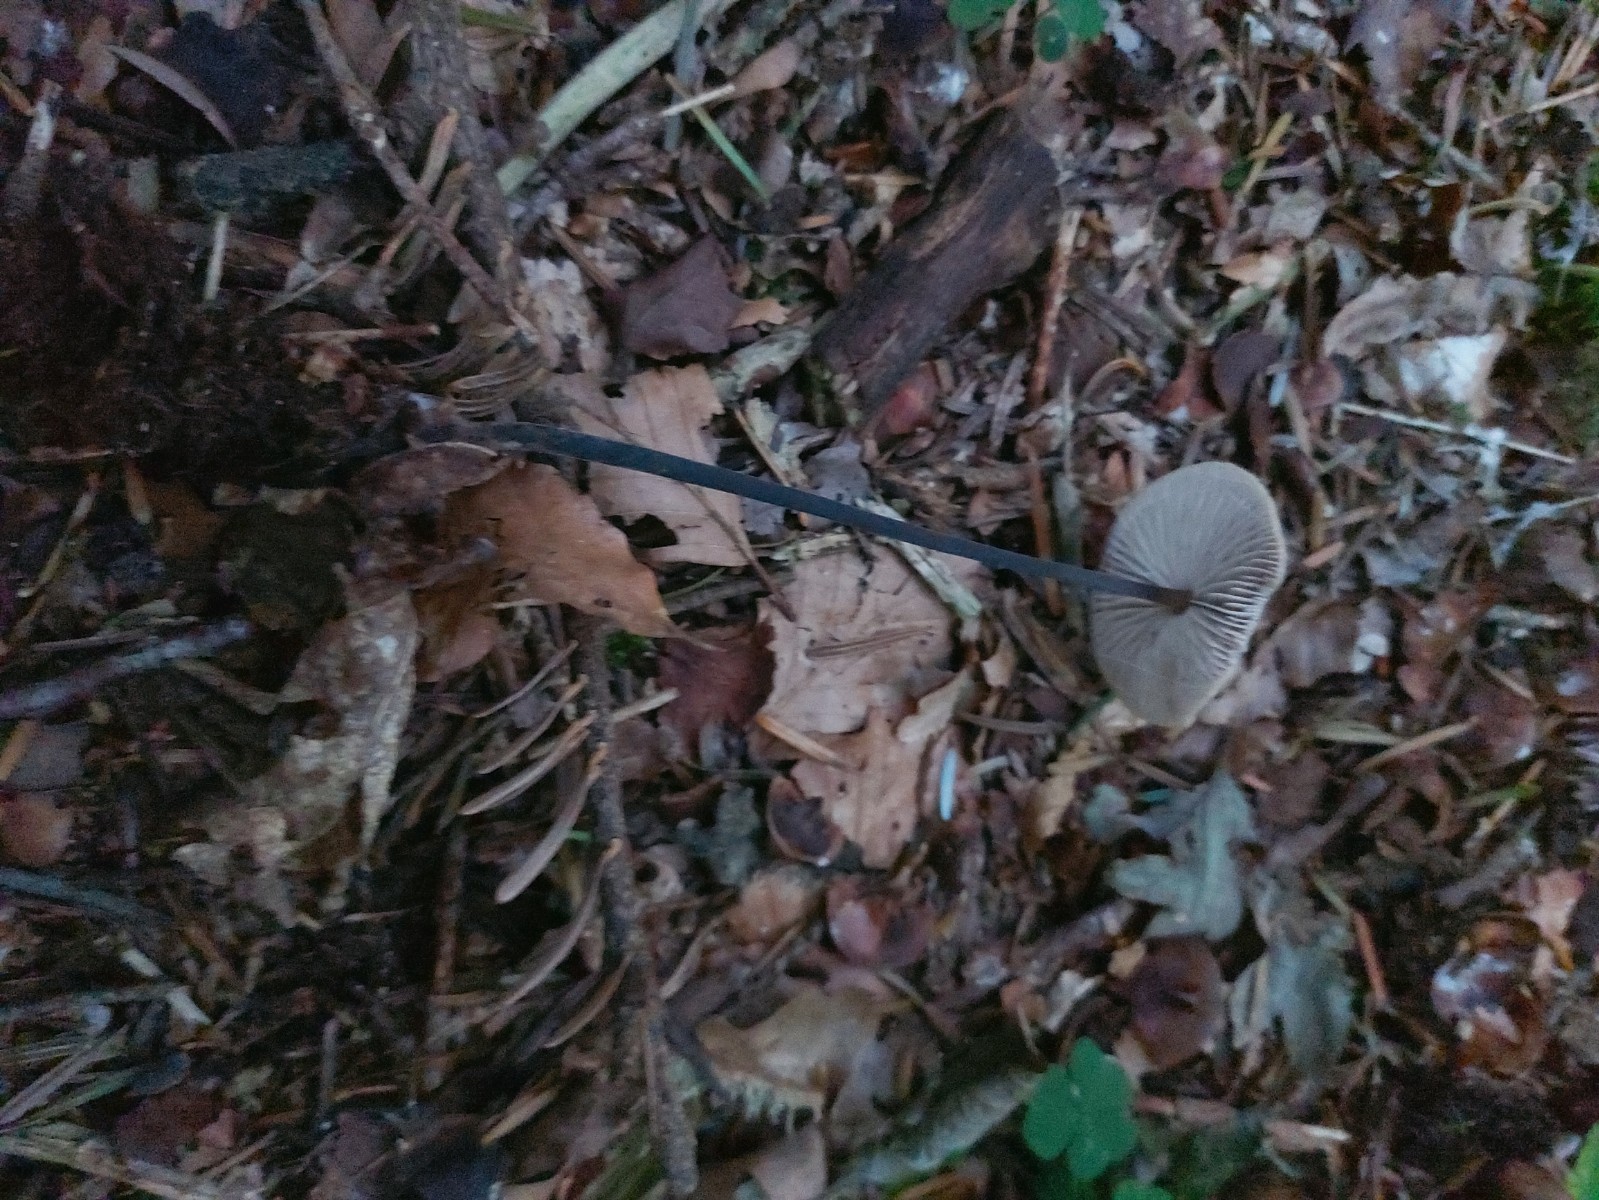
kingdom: Fungi
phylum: Basidiomycota
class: Agaricomycetes
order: Agaricales
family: Omphalotaceae
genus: Mycetinis
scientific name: Mycetinis alliaceus
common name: stor løghat
